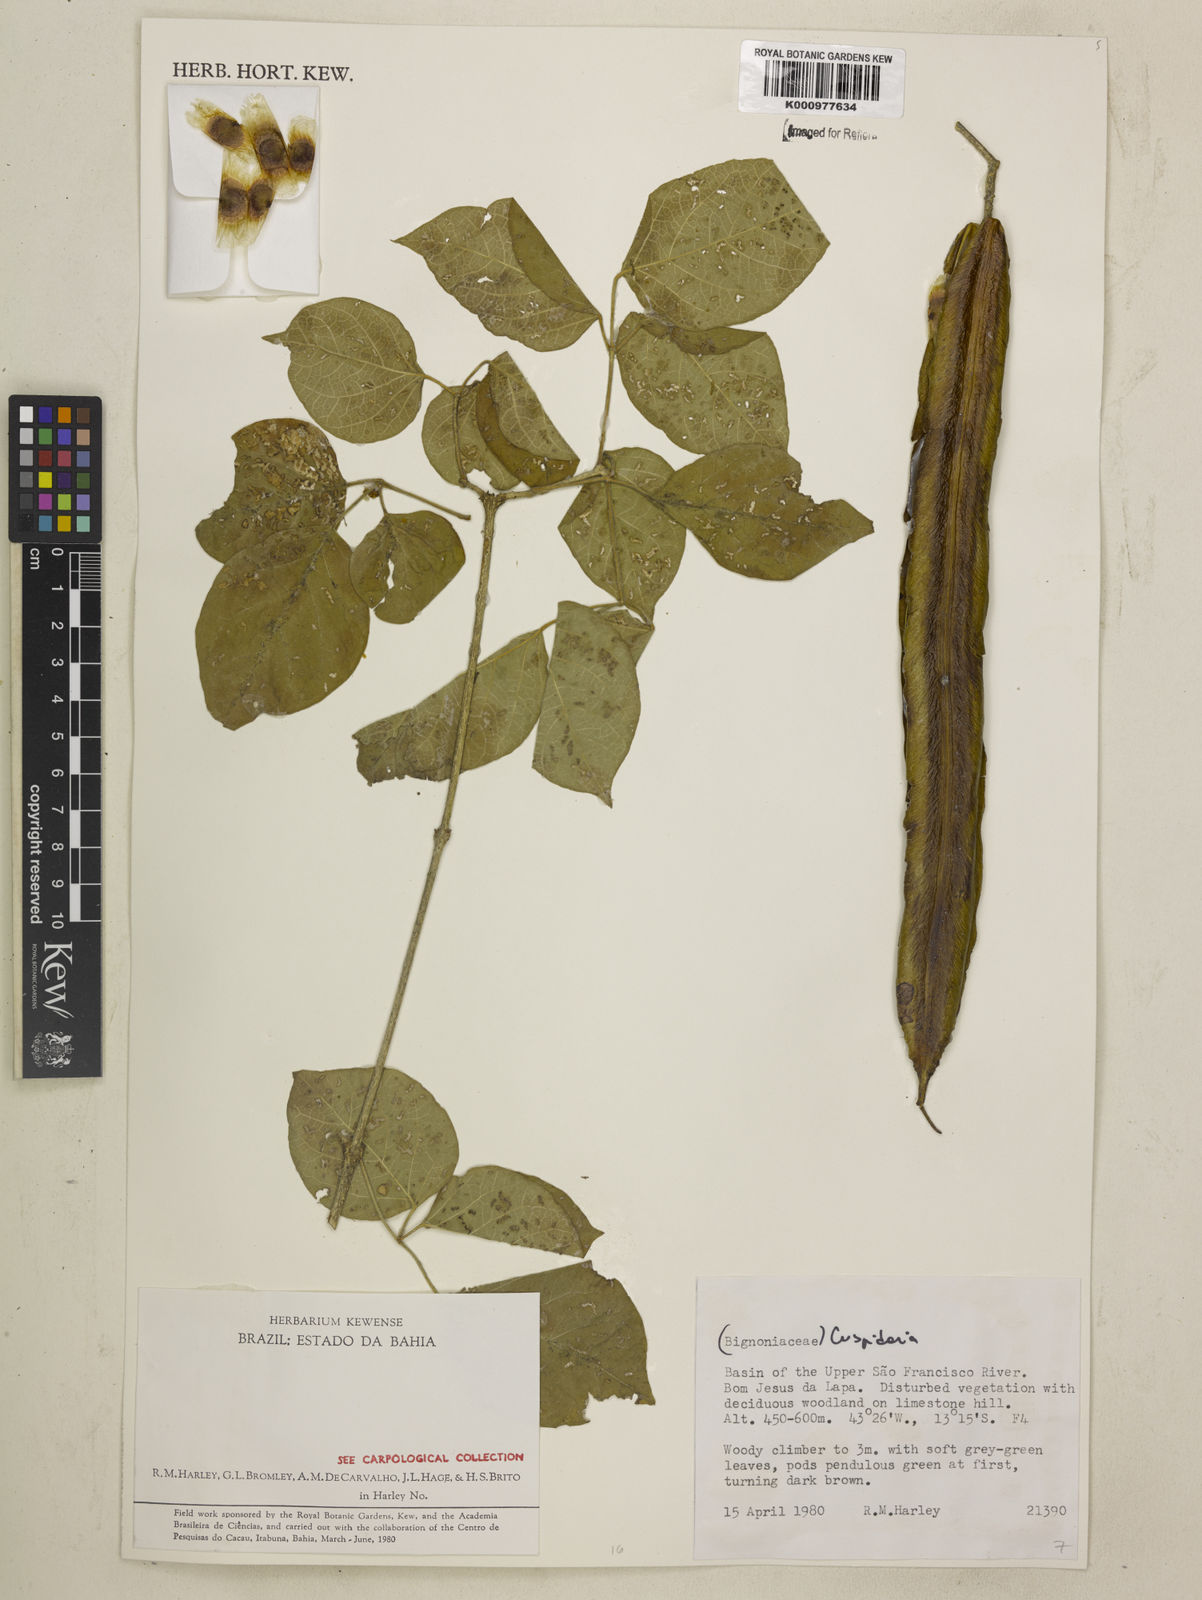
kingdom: Plantae
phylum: Tracheophyta
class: Magnoliopsida
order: Lamiales
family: Bignoniaceae
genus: Cuspidaria
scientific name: Cuspidaria
